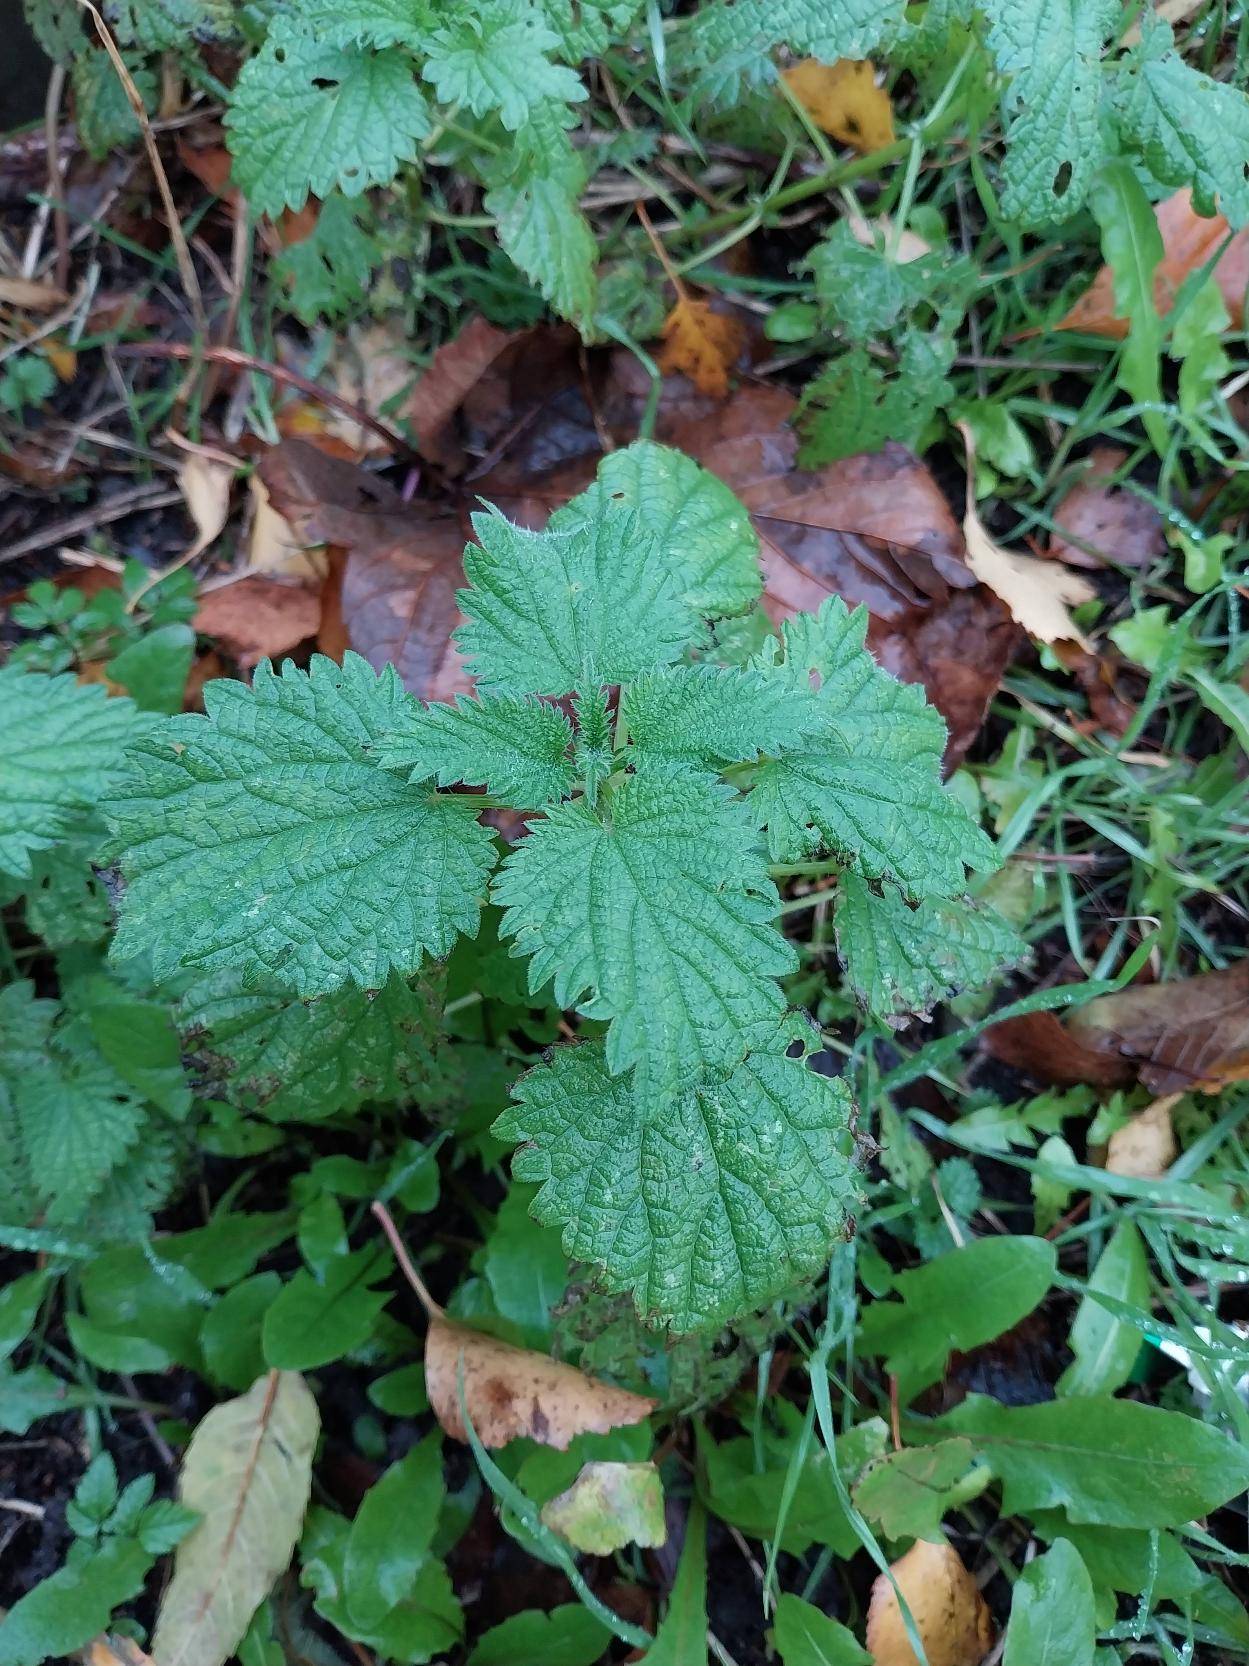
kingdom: Plantae
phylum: Tracheophyta
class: Magnoliopsida
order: Rosales
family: Urticaceae
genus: Urtica
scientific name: Urtica dioica
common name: Stor nælde
